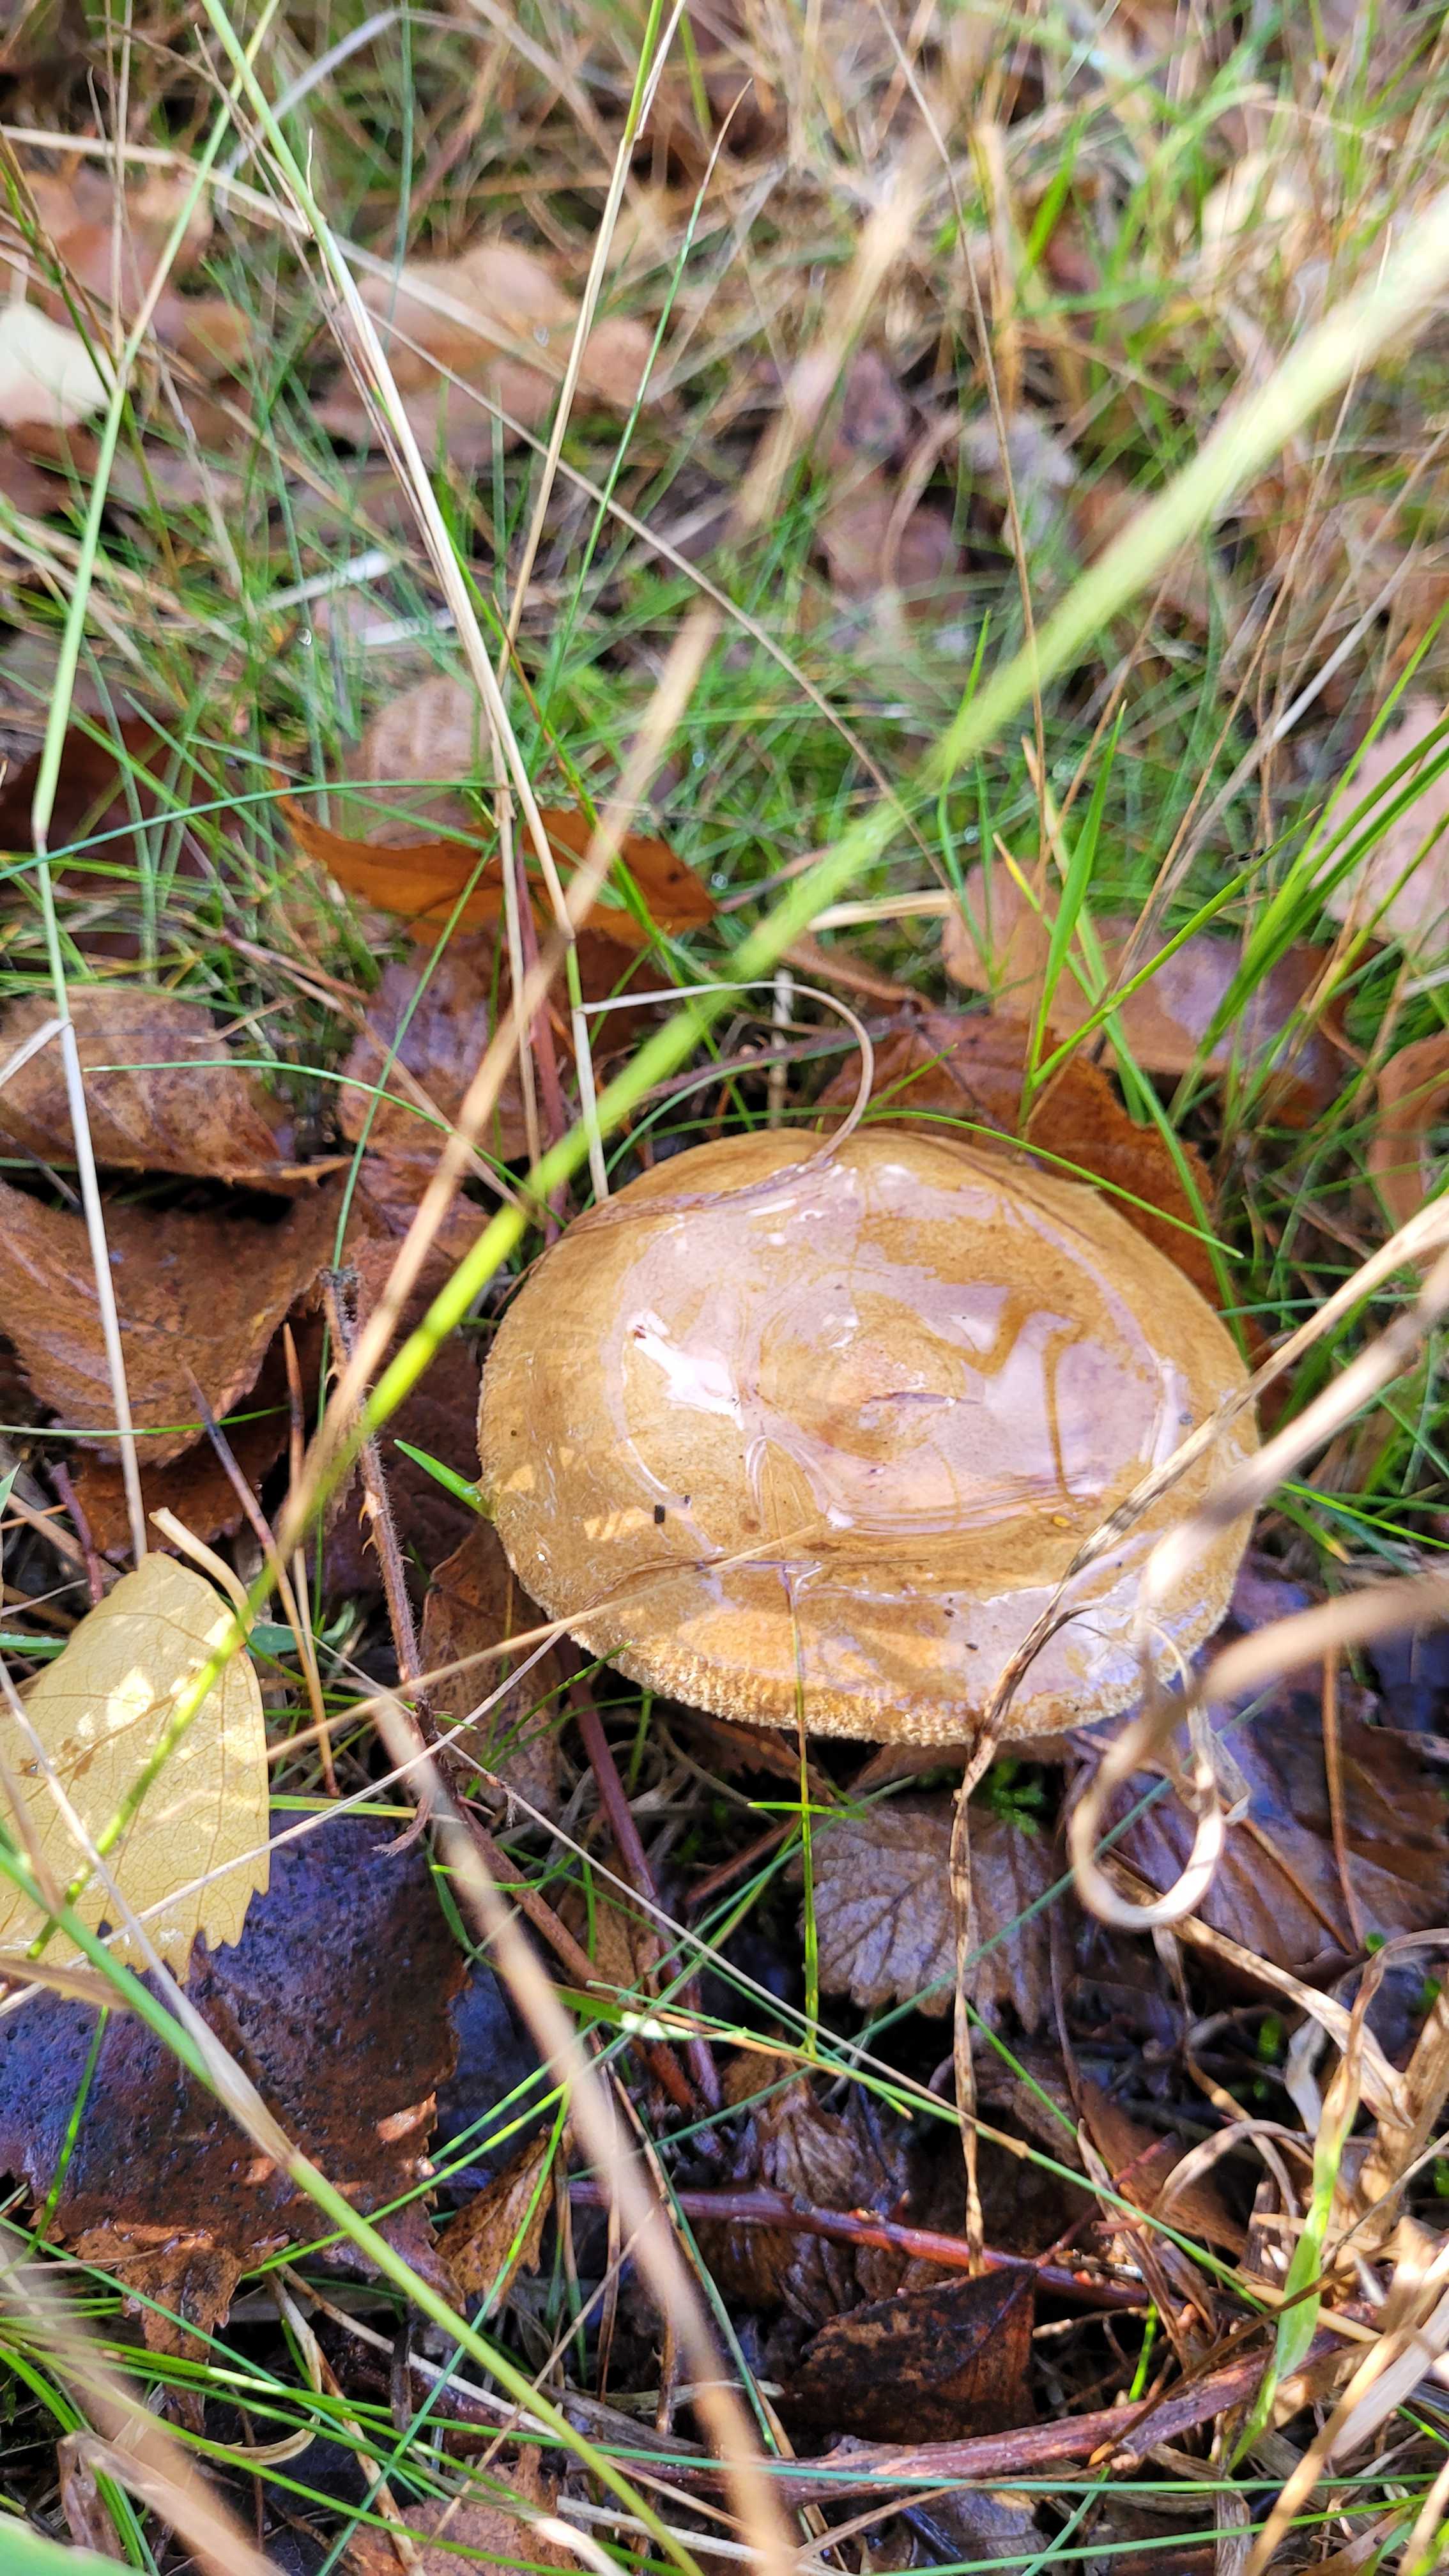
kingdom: Fungi
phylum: Basidiomycota
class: Agaricomycetes
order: Boletales
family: Paxillaceae
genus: Paxillus
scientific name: Paxillus involutus
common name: almindelig netbladhat
